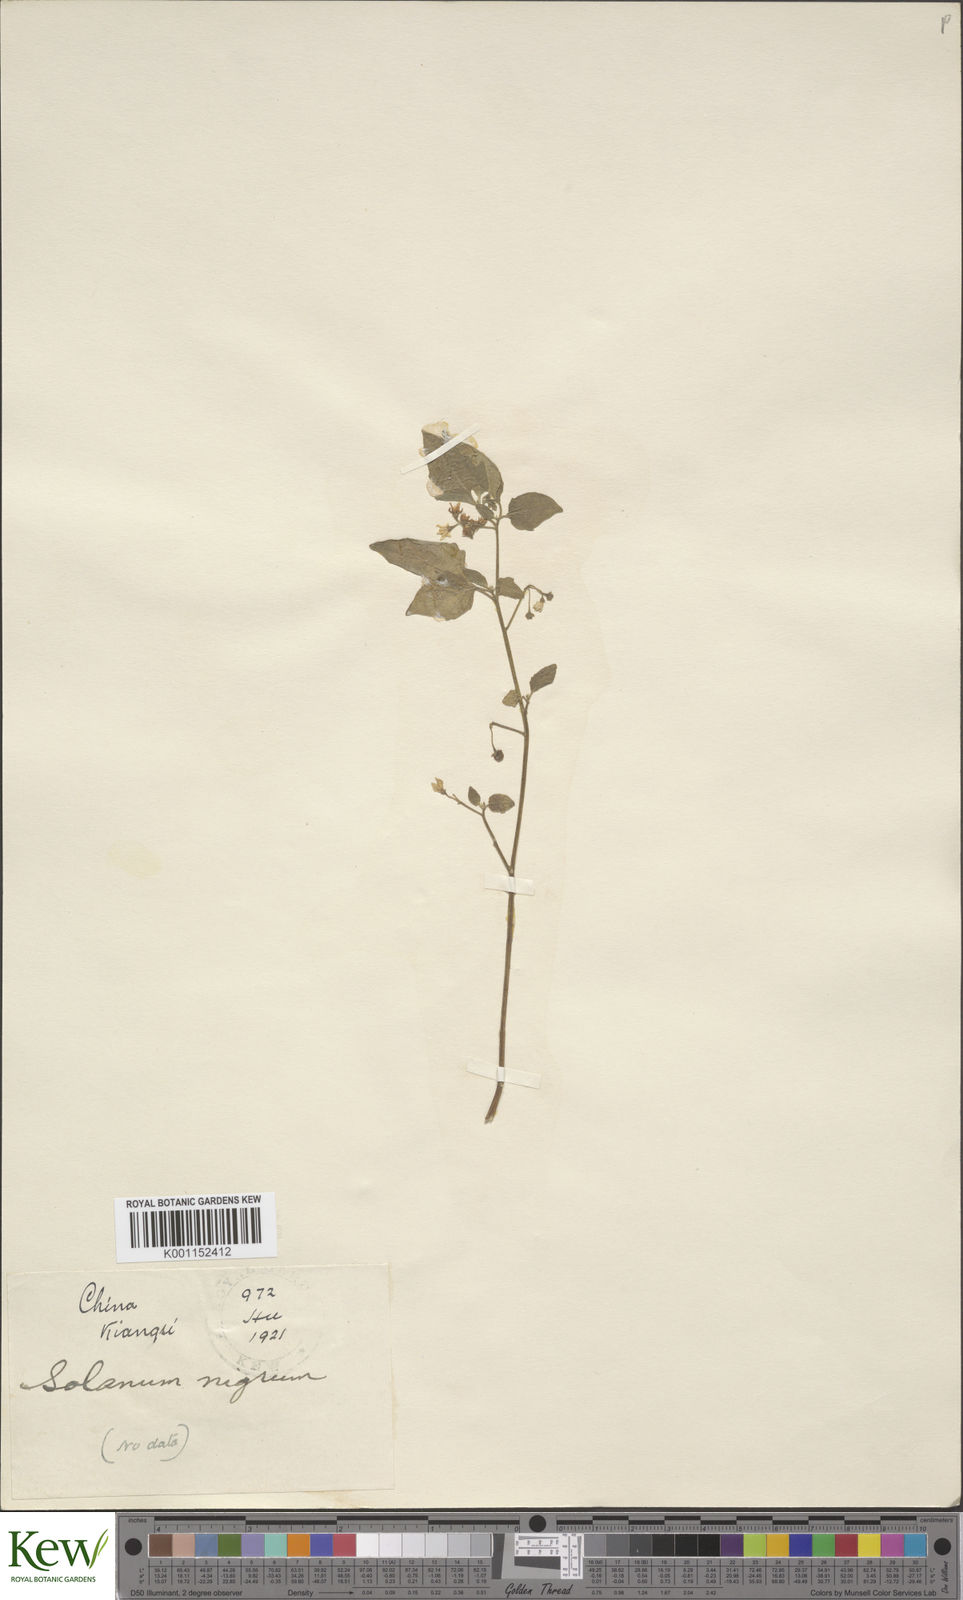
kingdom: Plantae
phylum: Tracheophyta
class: Magnoliopsida
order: Solanales
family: Solanaceae
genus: Solanum
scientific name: Solanum scabrum
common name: Garden-huckleberry
